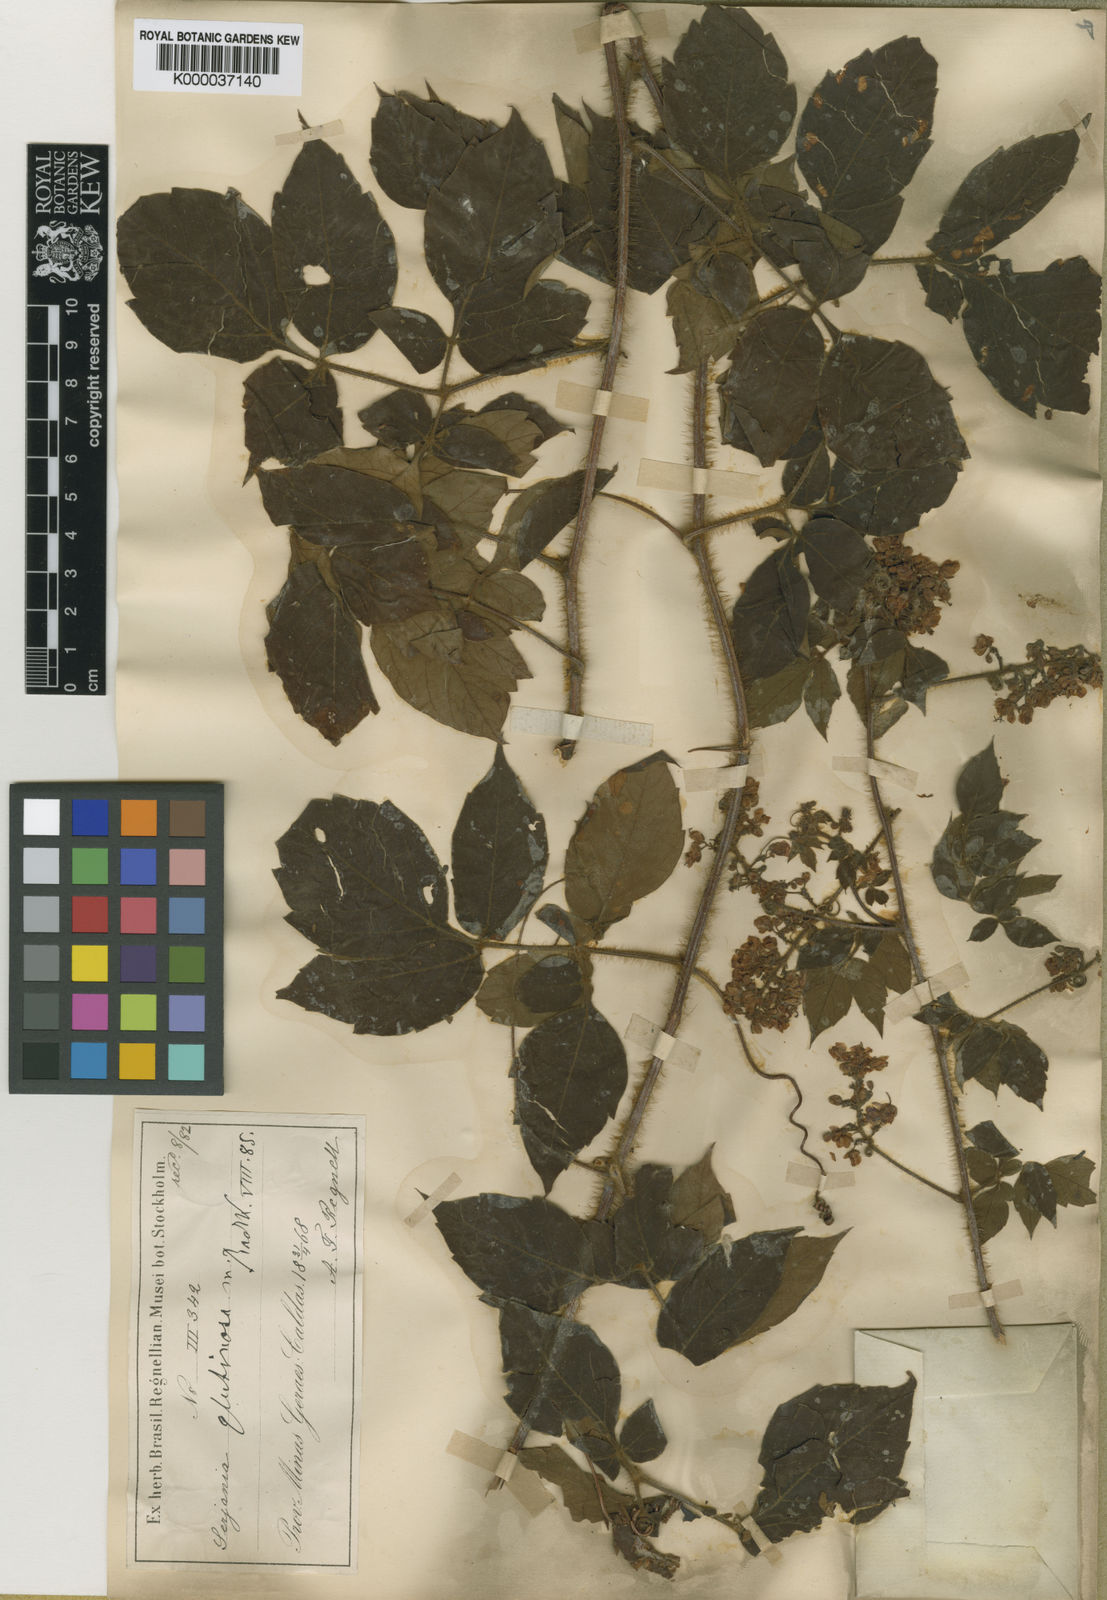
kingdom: Plantae
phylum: Tracheophyta
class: Magnoliopsida
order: Sapindales
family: Sapindaceae
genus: Serjania
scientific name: Serjania glutinosa
